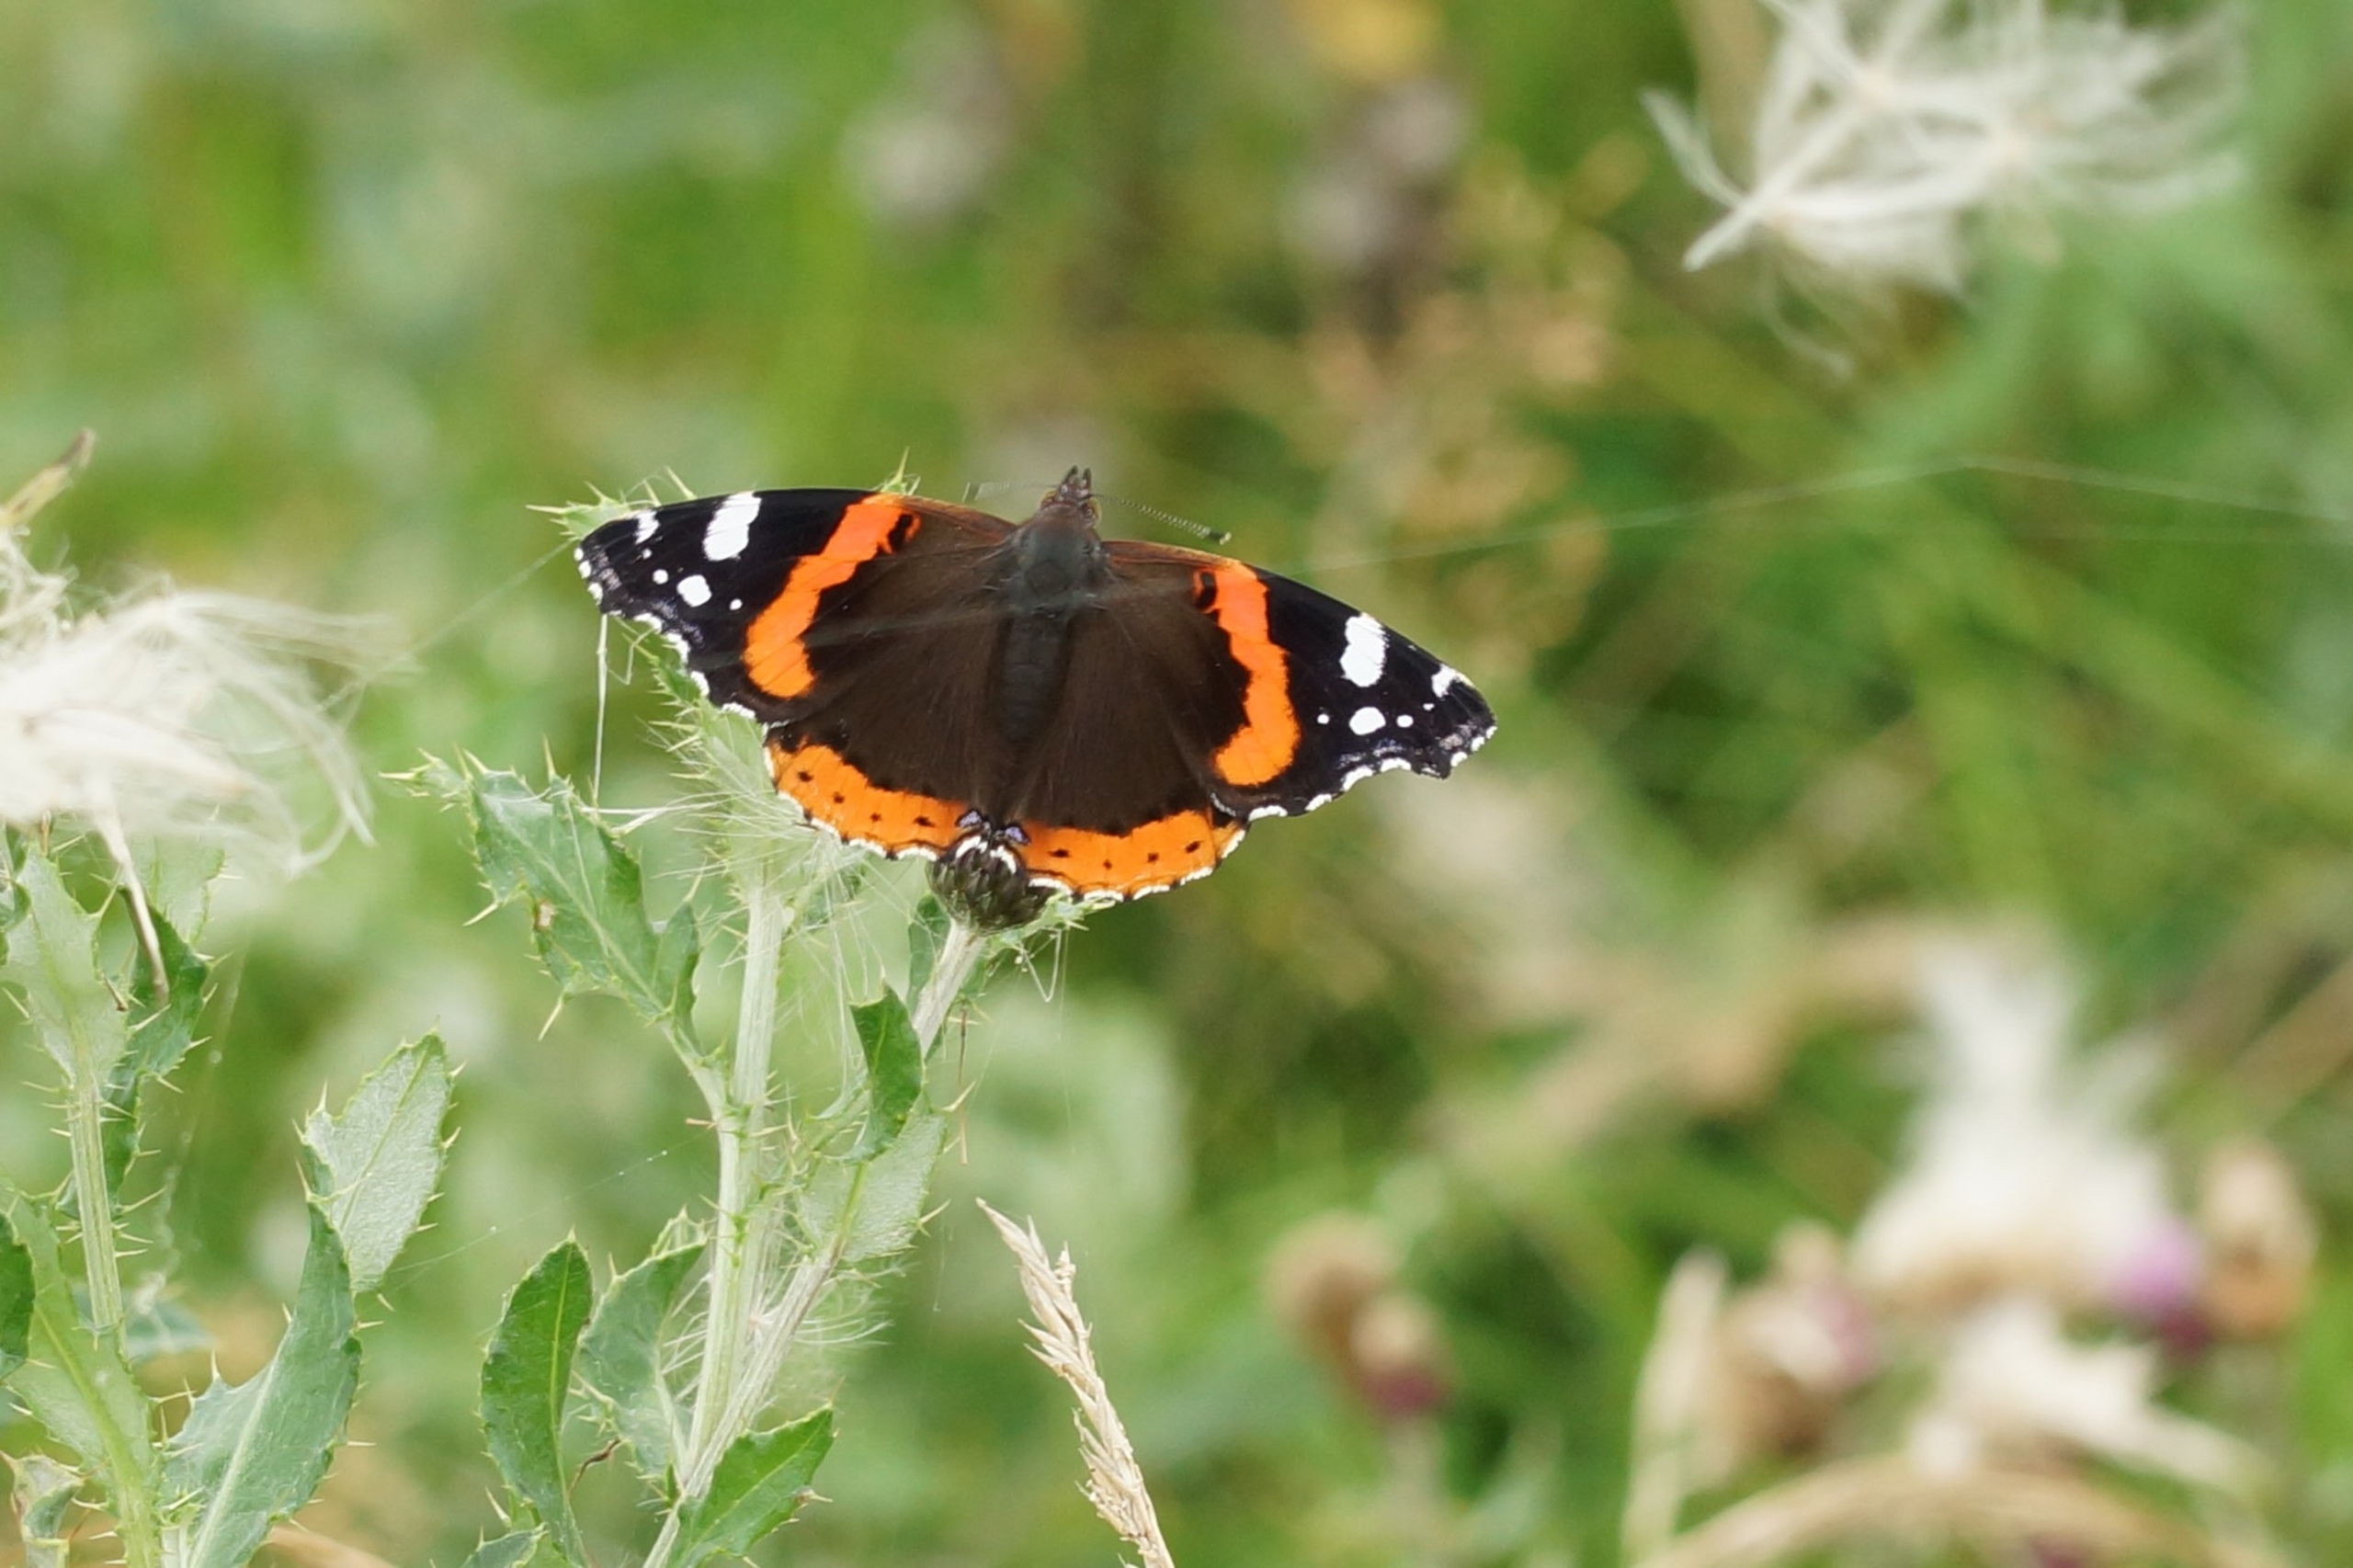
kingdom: Animalia
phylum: Arthropoda
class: Insecta
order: Lepidoptera
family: Nymphalidae
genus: Vanessa
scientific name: Vanessa atalanta
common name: Admiral
